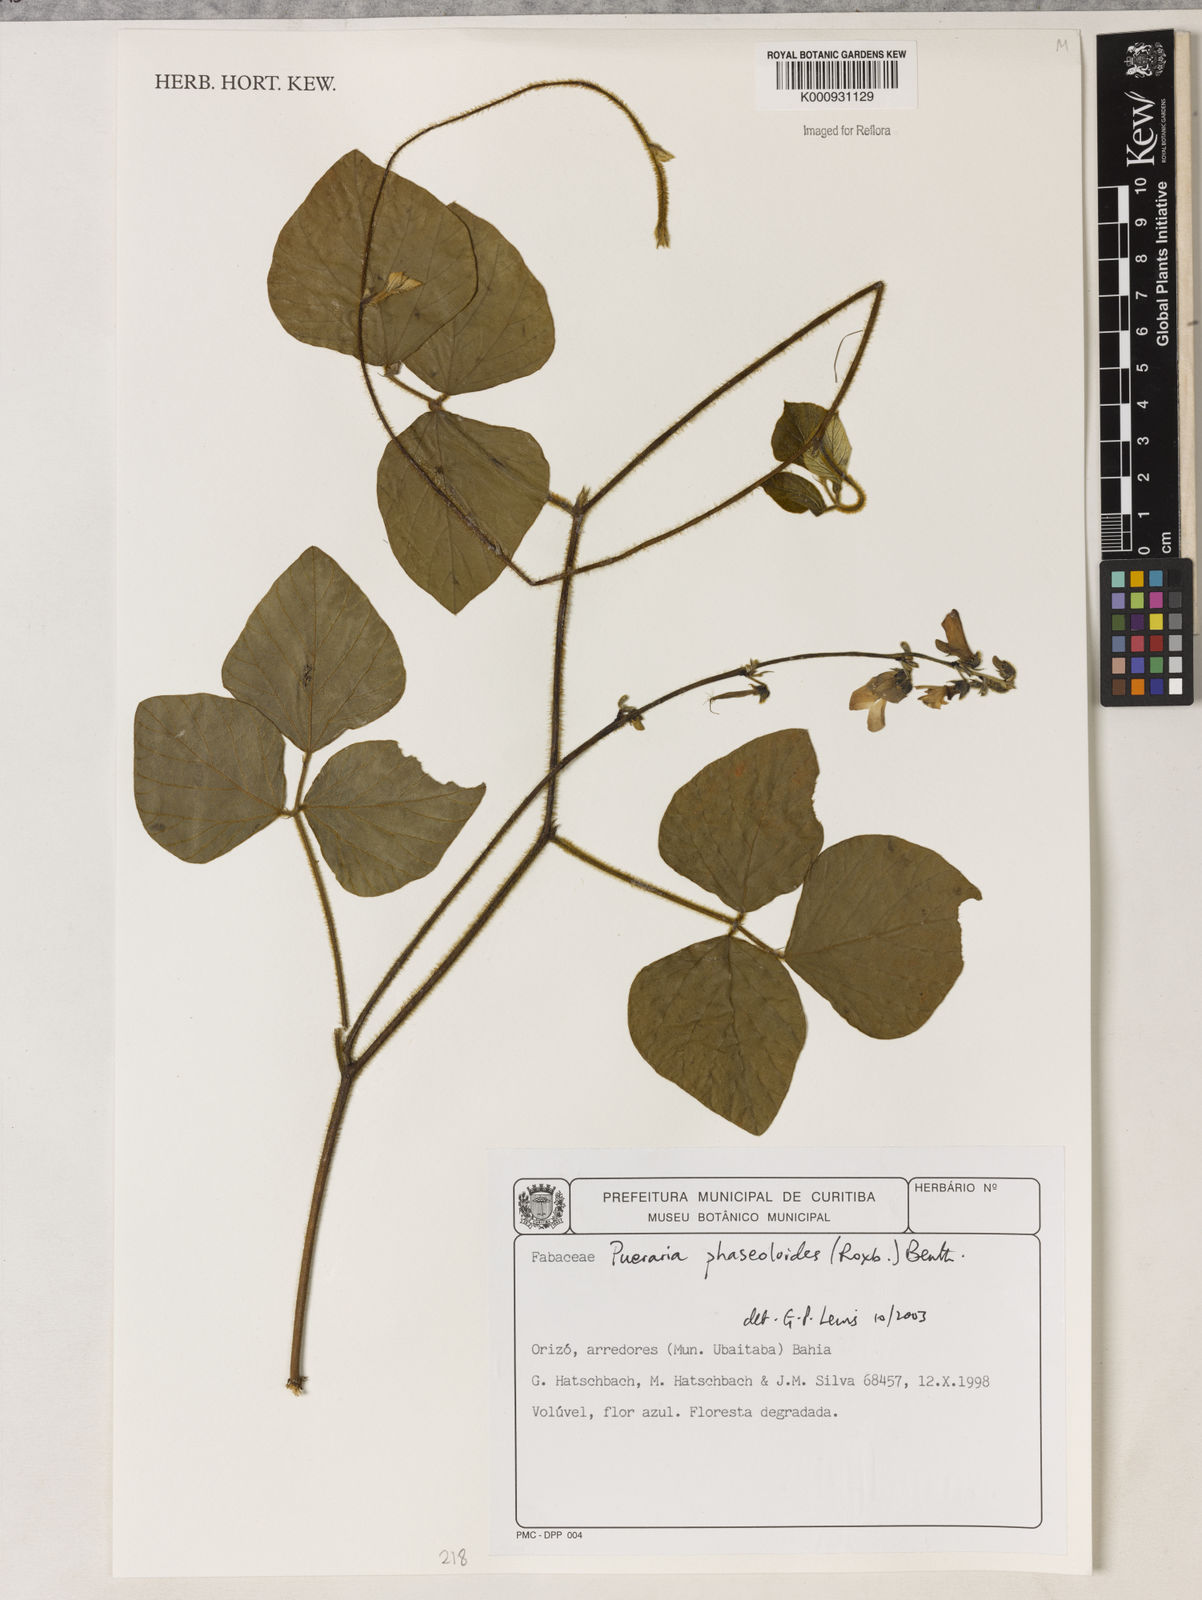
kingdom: Plantae
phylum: Tracheophyta
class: Magnoliopsida
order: Fabales
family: Fabaceae
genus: Neustanthus
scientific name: Neustanthus phaseoloides
